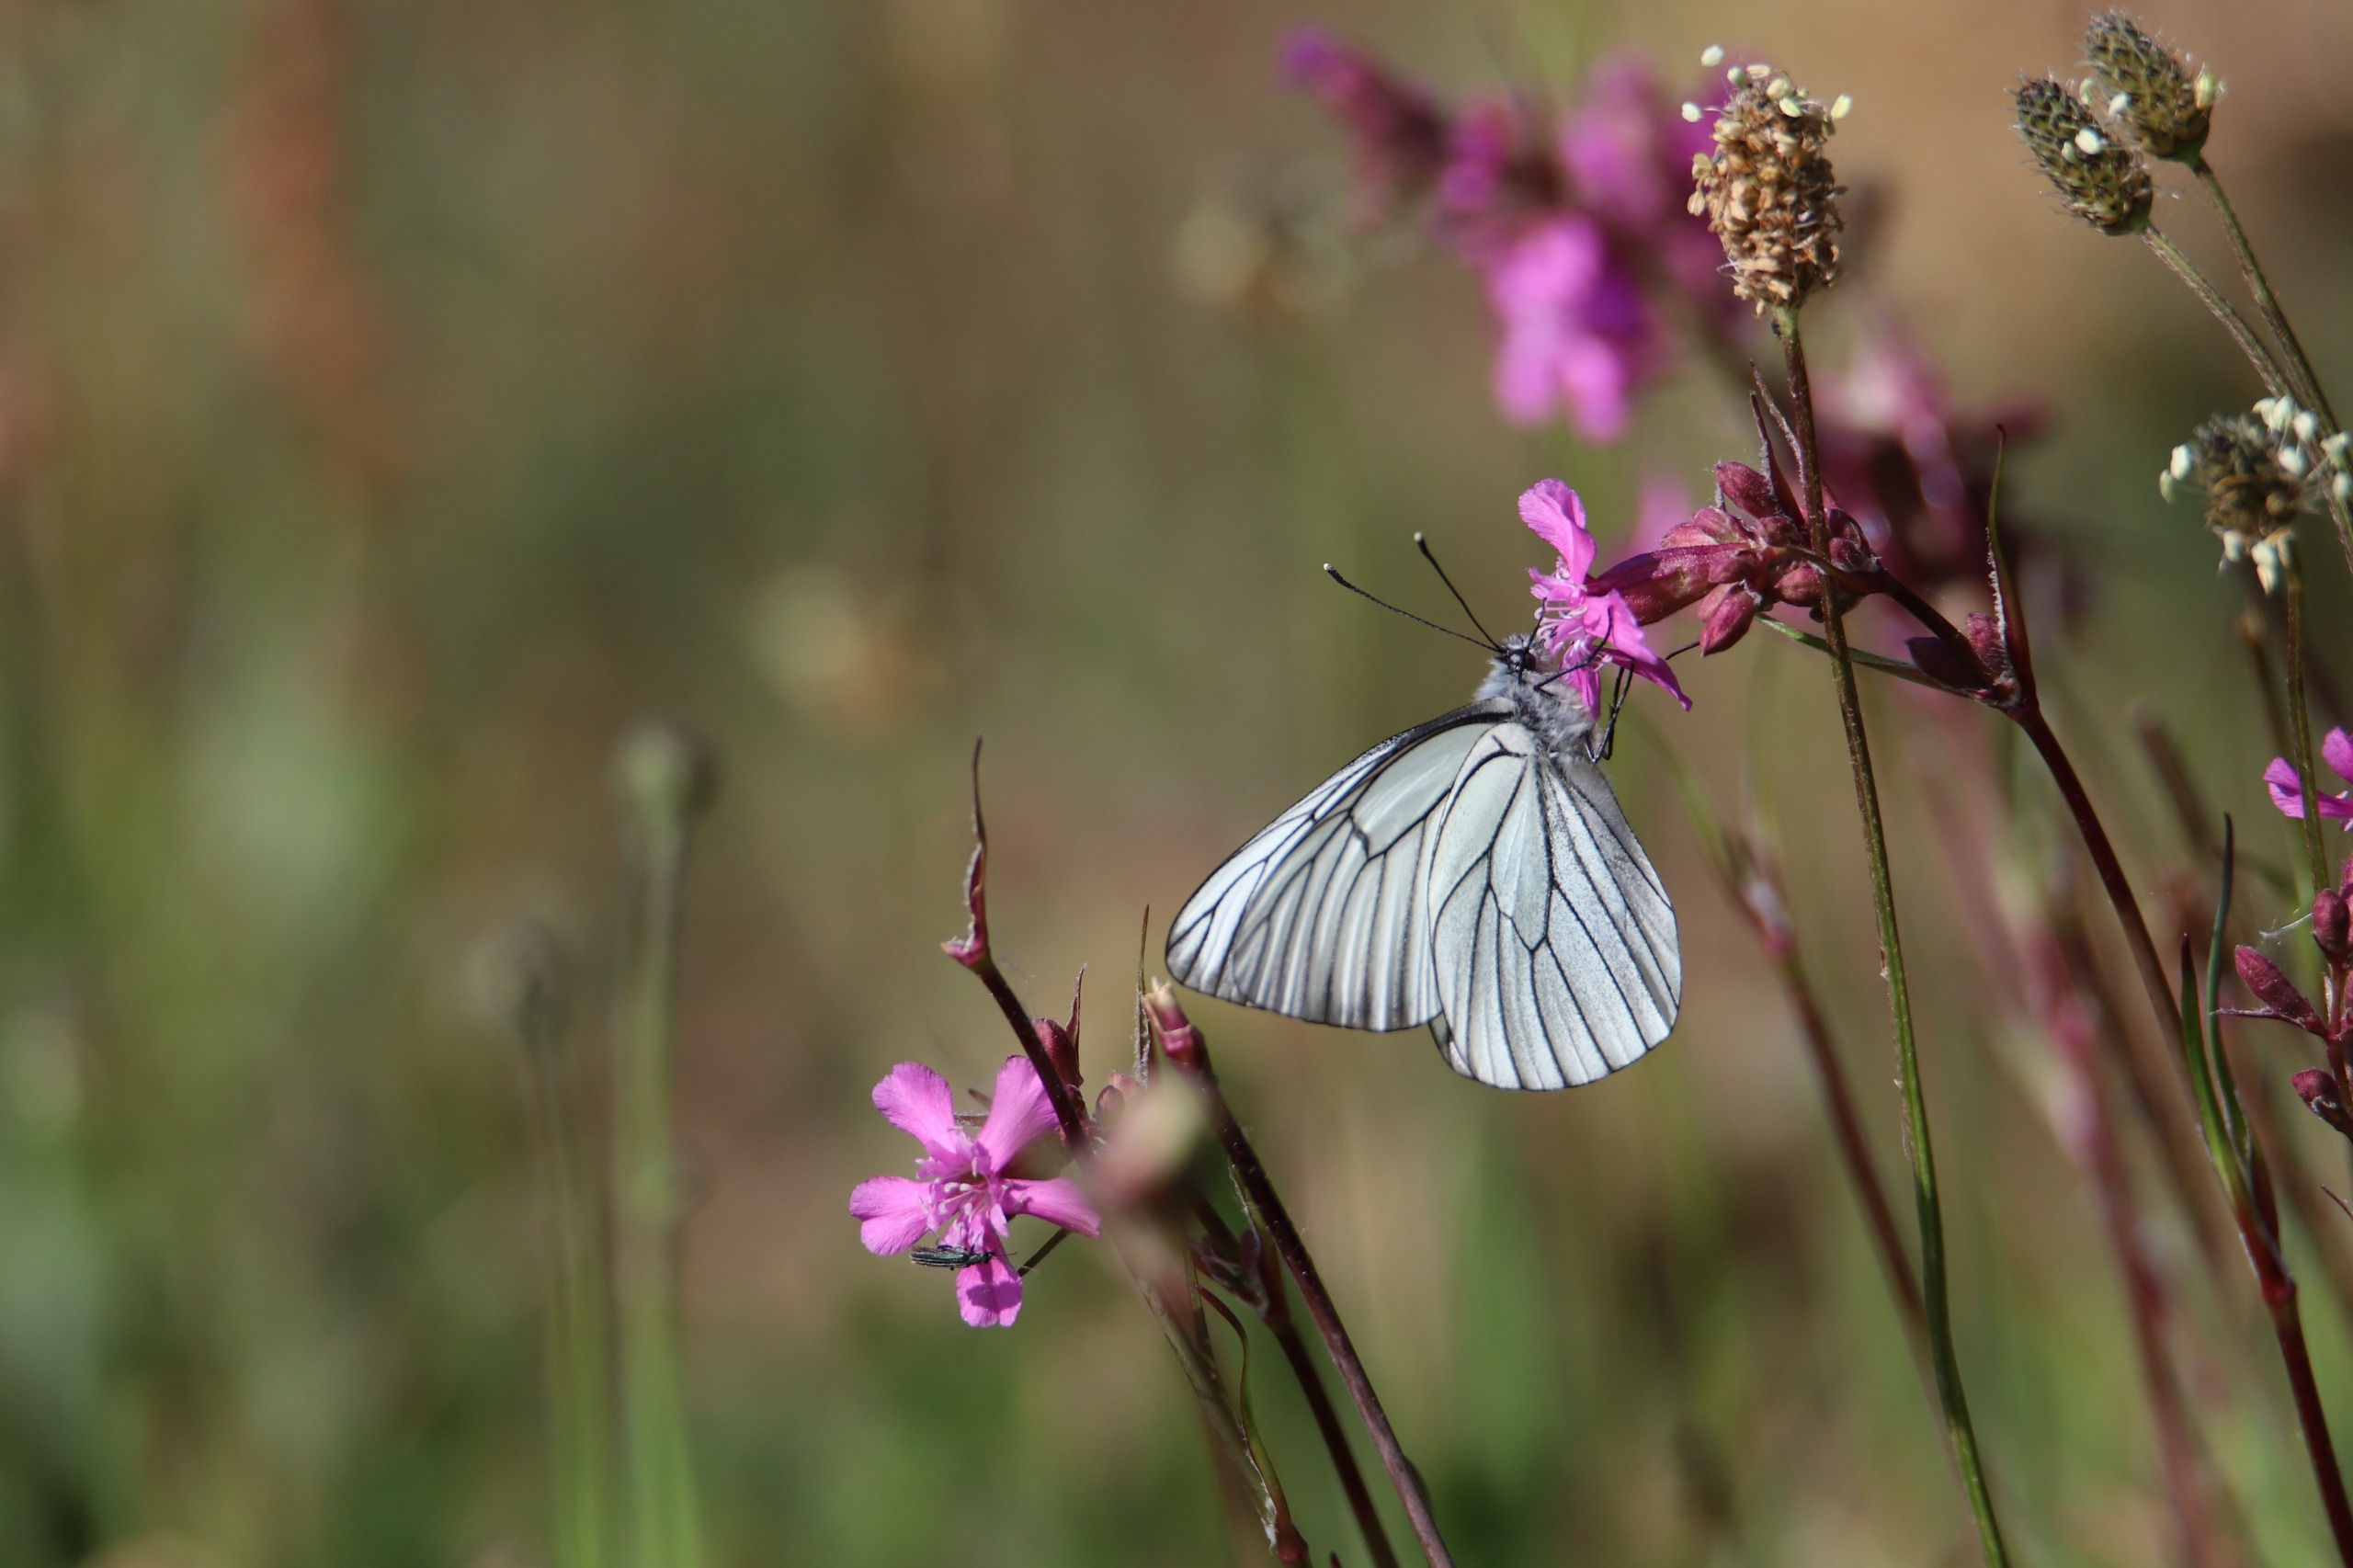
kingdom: Animalia
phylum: Arthropoda
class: Insecta
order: Lepidoptera
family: Pieridae
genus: Aporia
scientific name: Aporia crataegi
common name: Sortåret hvidvinge
